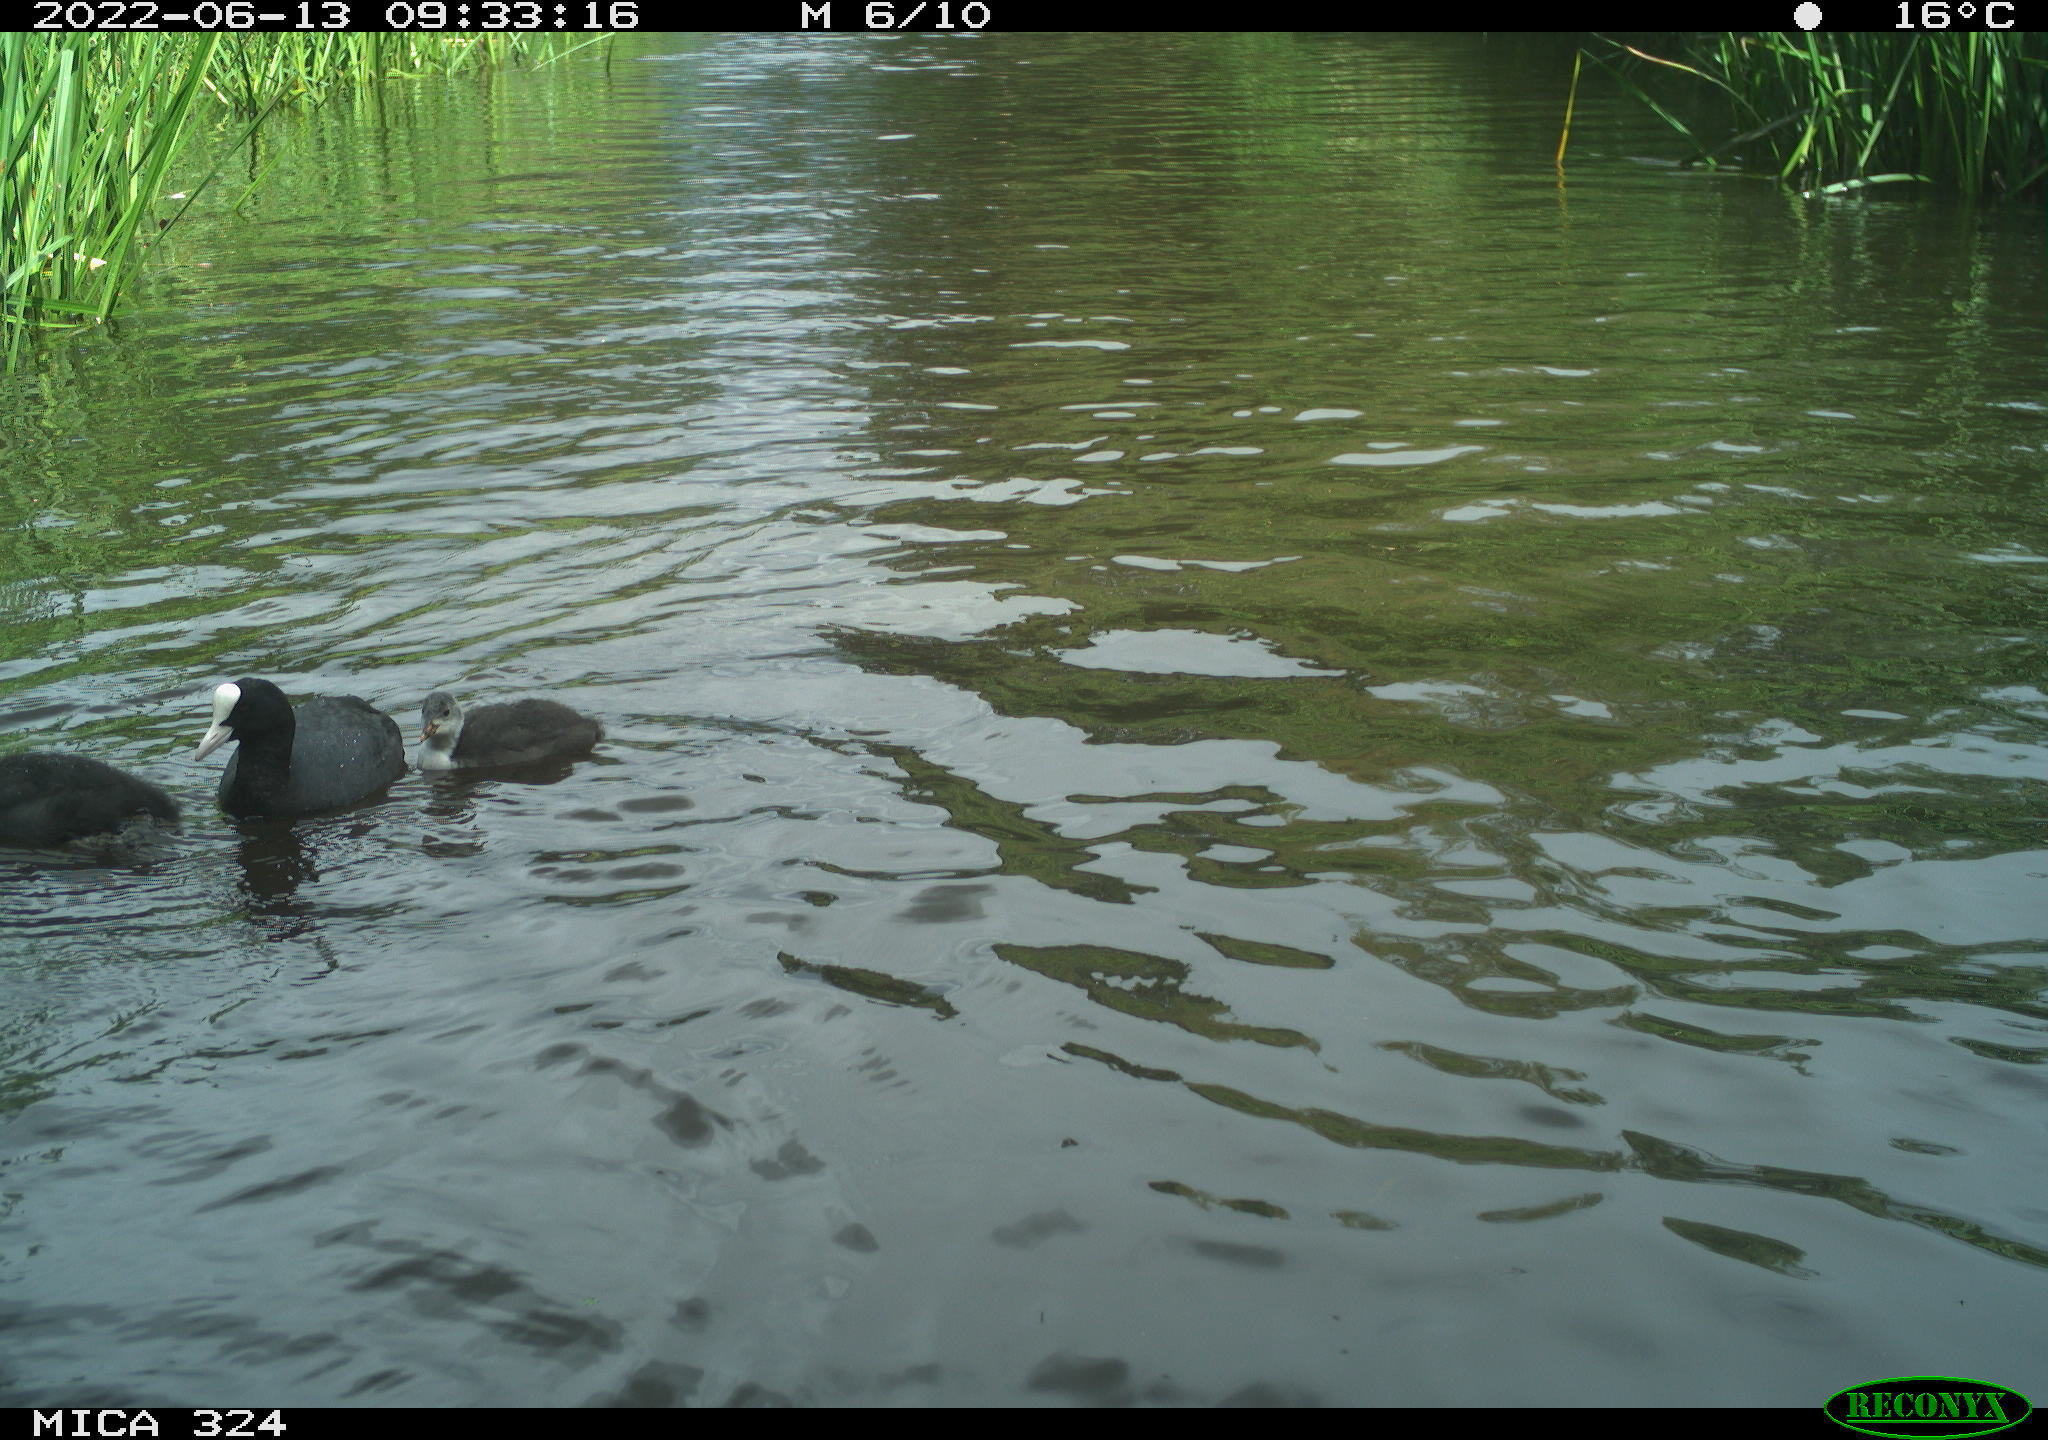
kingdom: Animalia
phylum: Chordata
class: Aves
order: Gruiformes
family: Rallidae
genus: Fulica
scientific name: Fulica atra
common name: Eurasian coot
